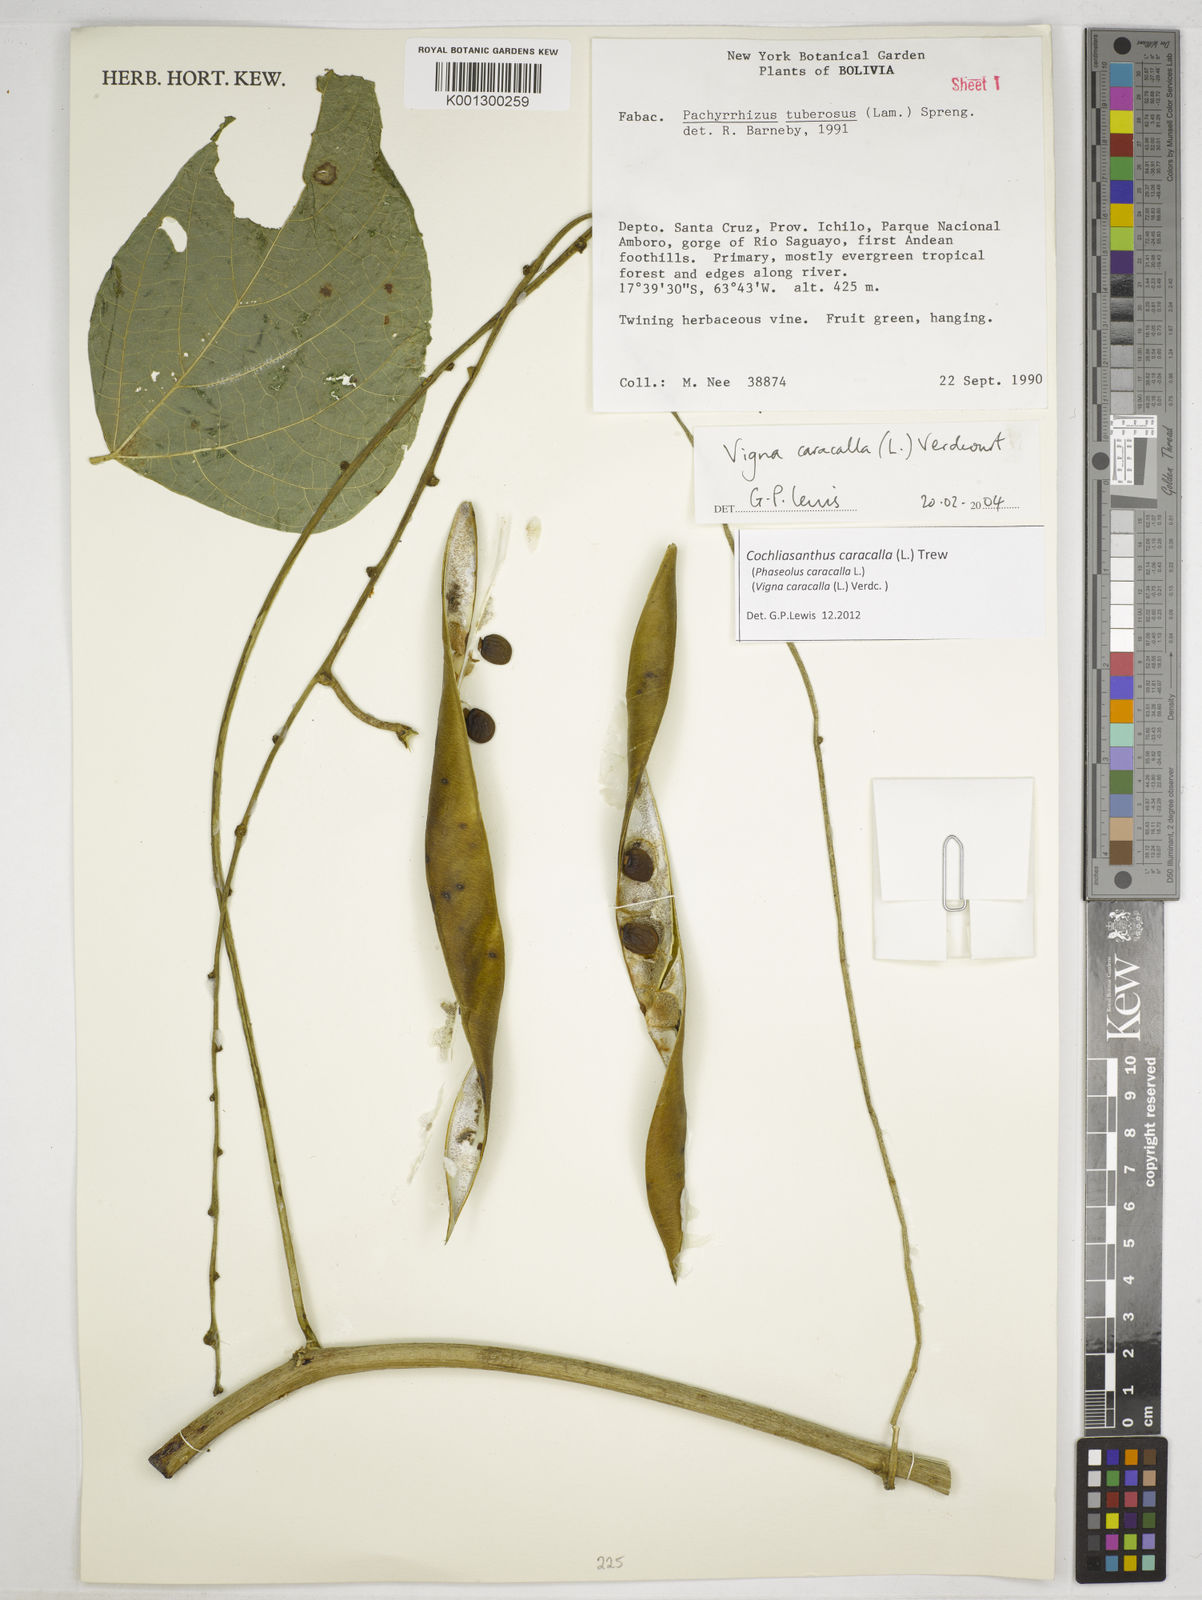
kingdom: Plantae
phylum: Tracheophyta
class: Magnoliopsida
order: Fabales
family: Fabaceae
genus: Cochliasanthus
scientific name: Cochliasanthus caracalla
